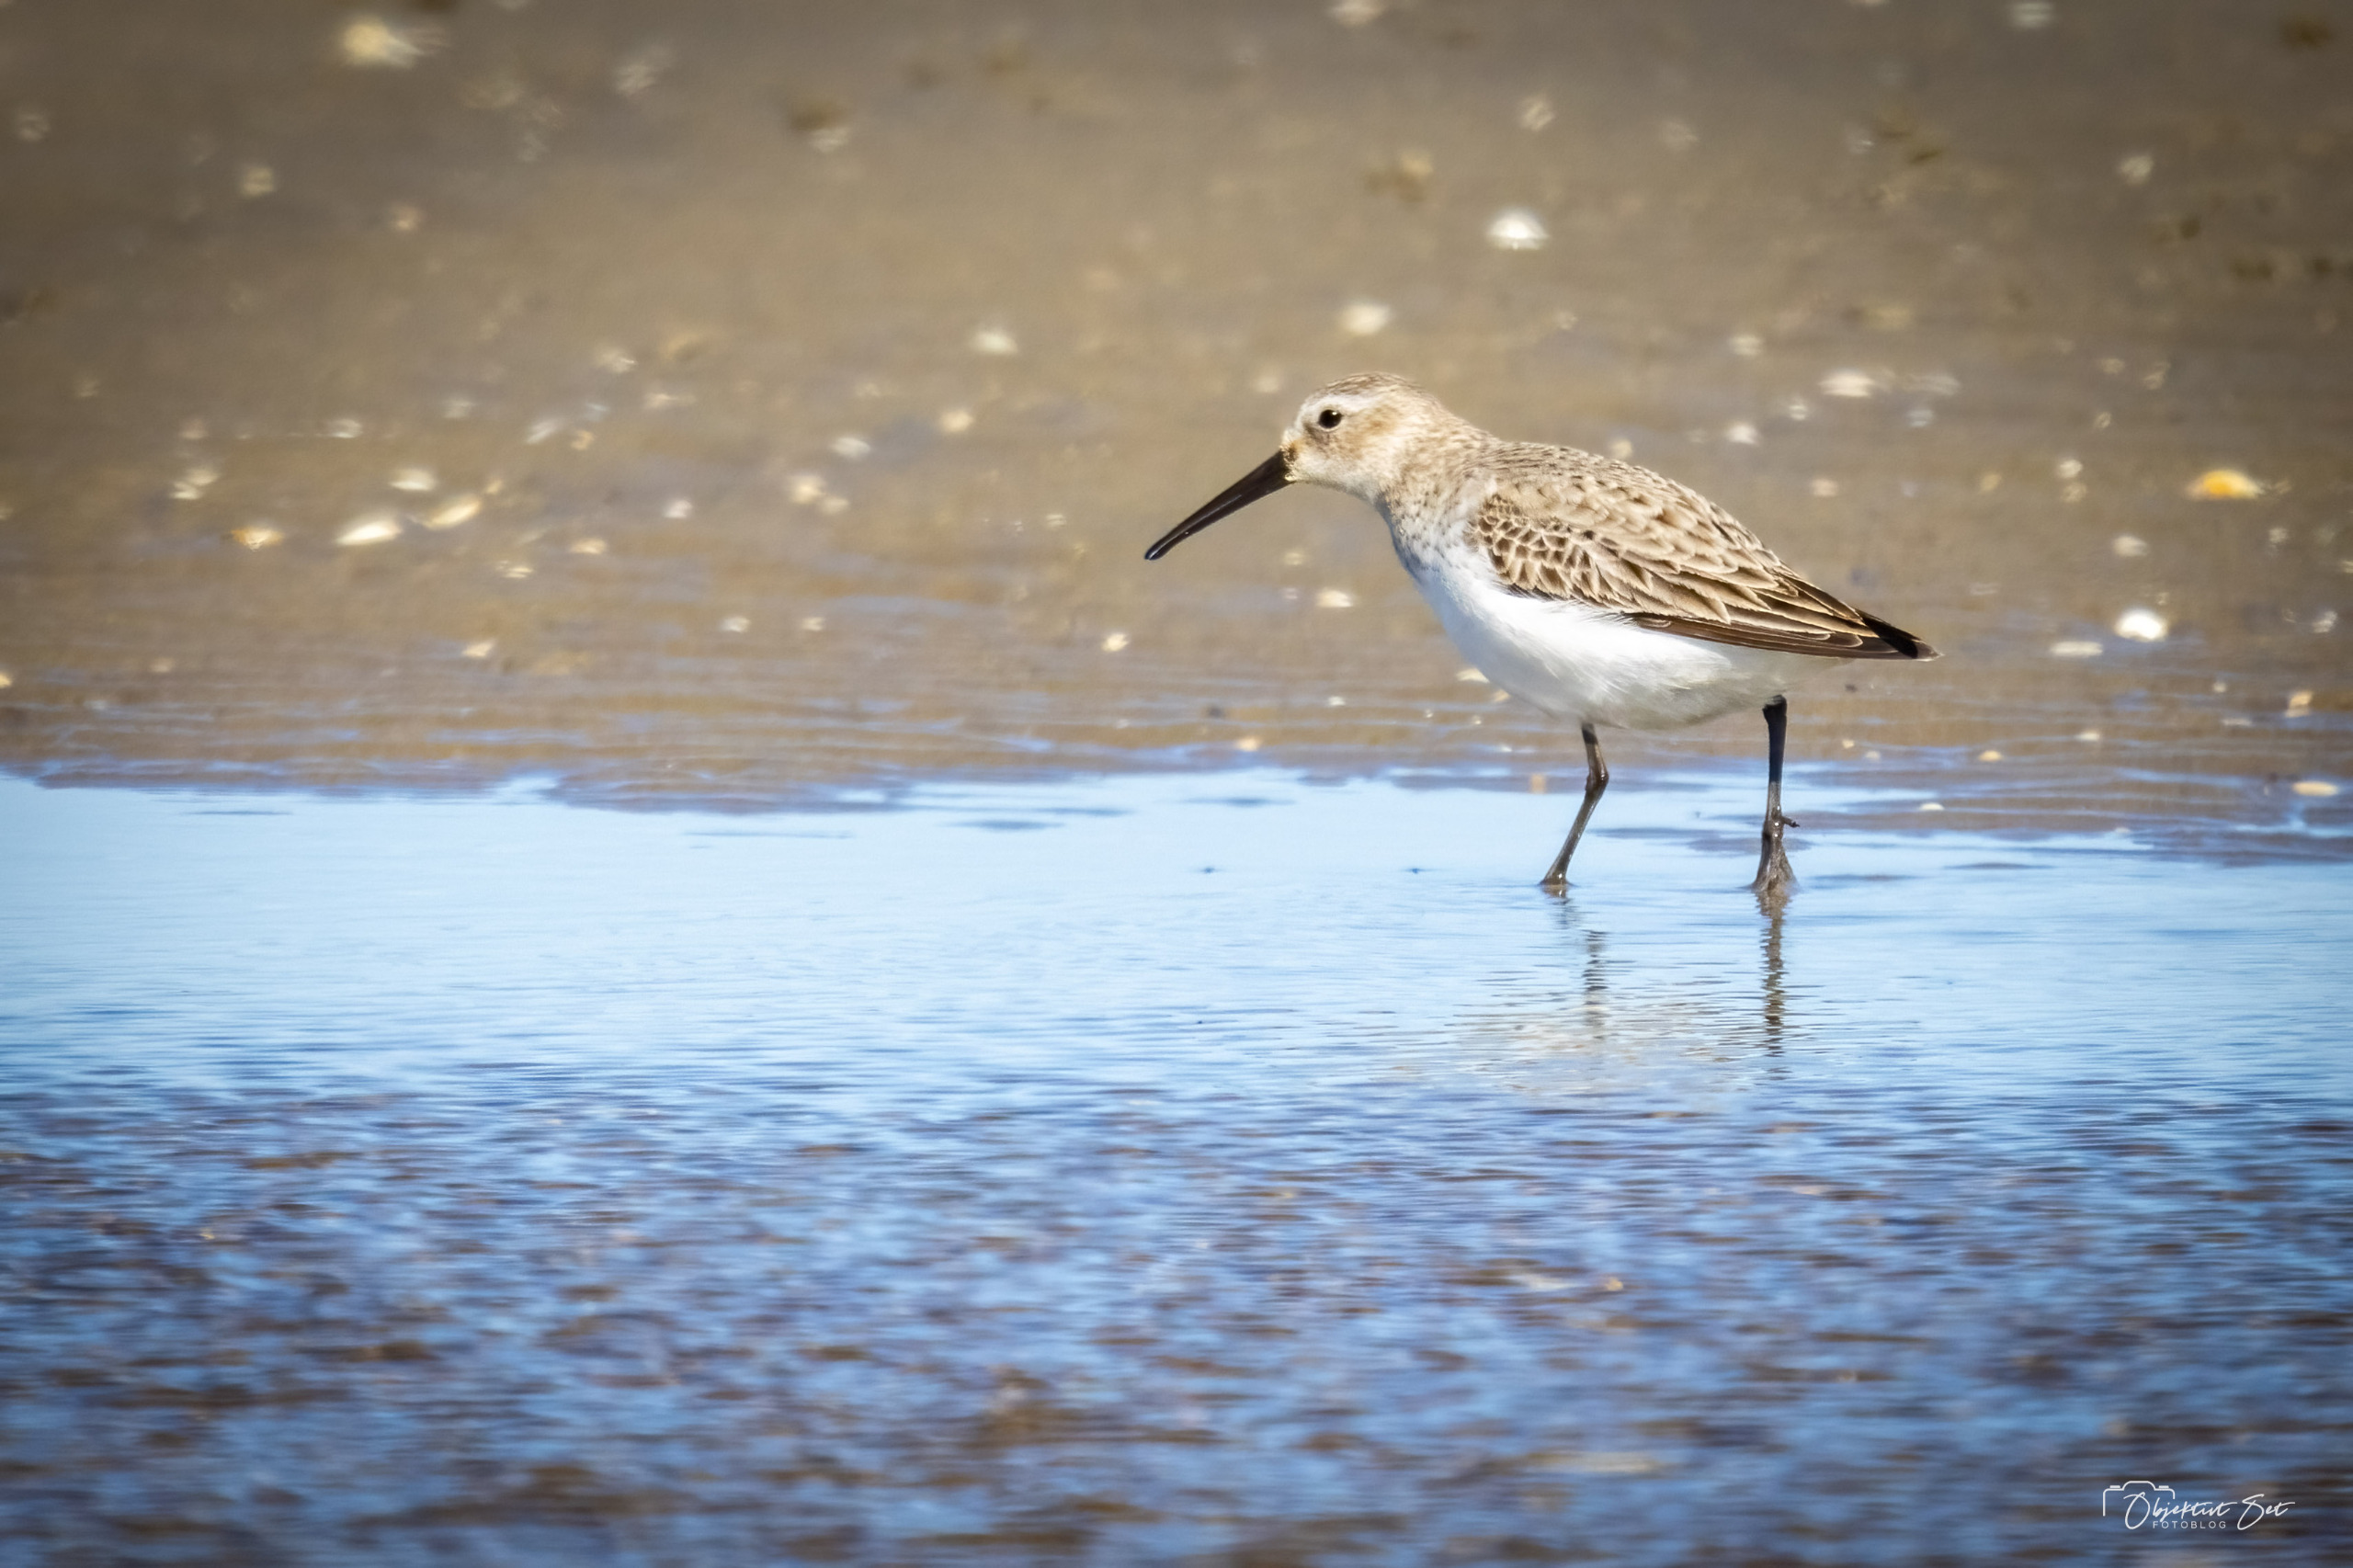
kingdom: Animalia
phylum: Chordata
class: Aves
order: Charadriiformes
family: Scolopacidae
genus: Calidris
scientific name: Calidris alpina
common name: Almindelig ryle
